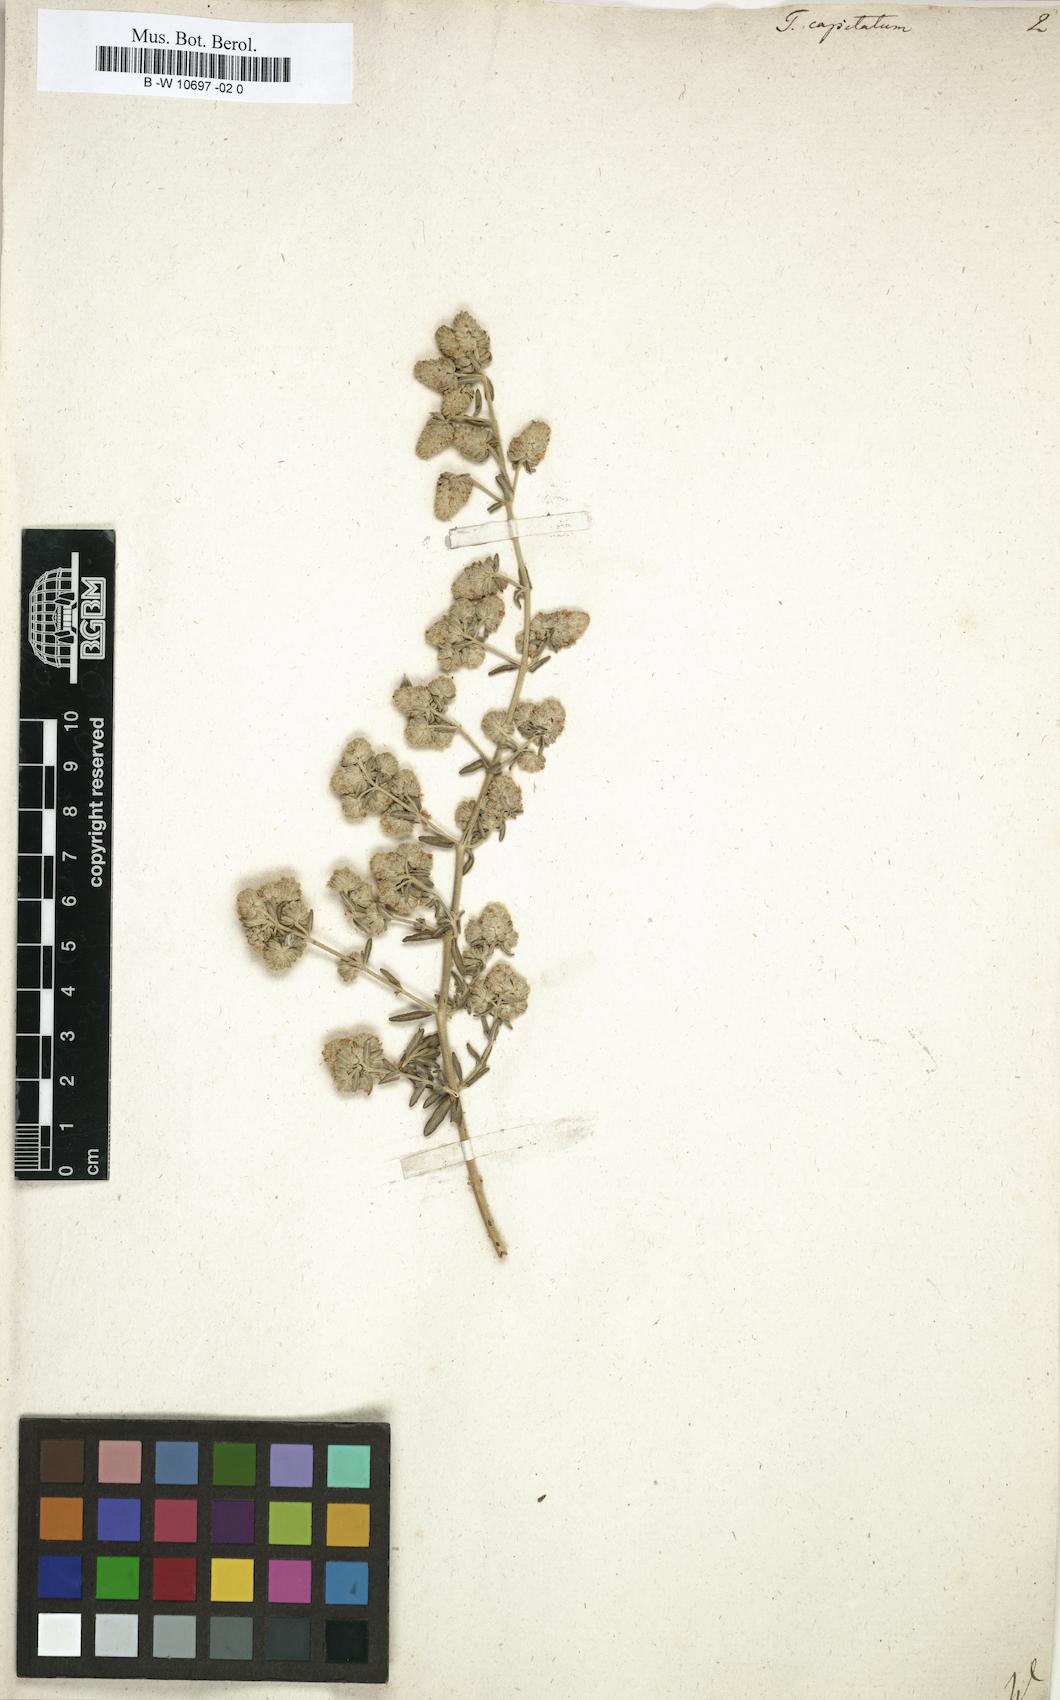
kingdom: Plantae
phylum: Tracheophyta
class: Magnoliopsida
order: Lamiales
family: Lamiaceae
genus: Teucrium
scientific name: Teucrium capitatum
